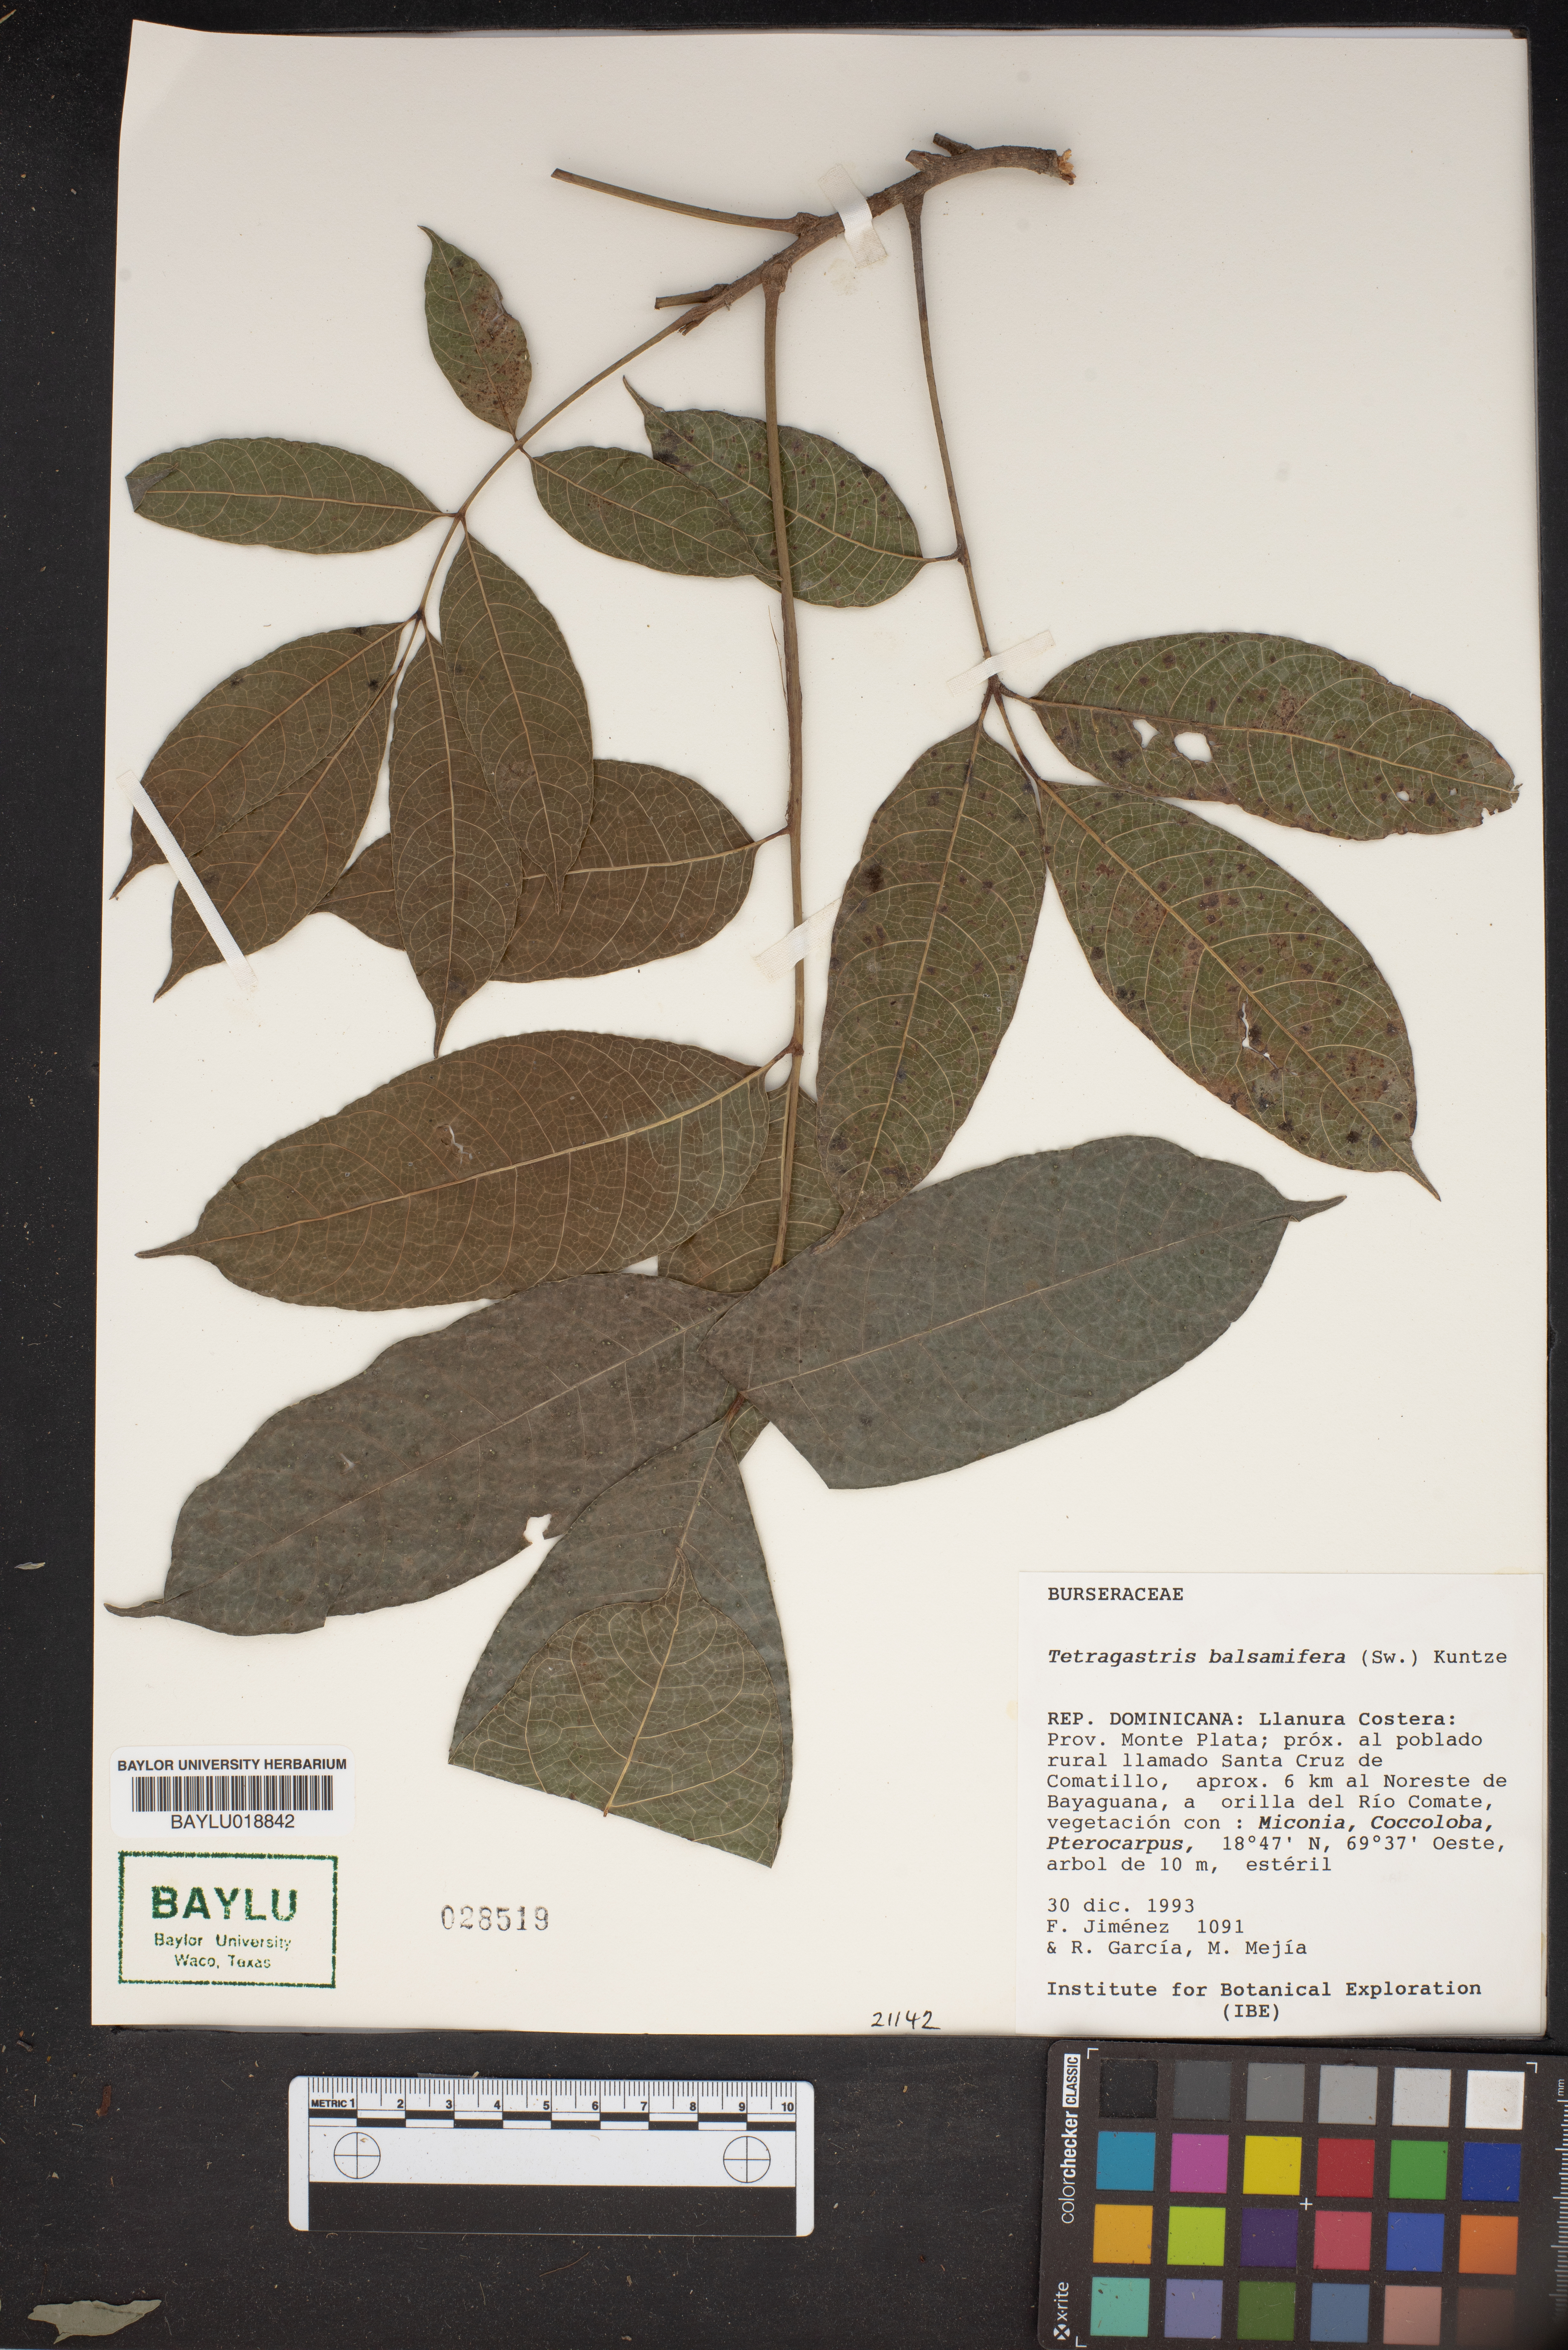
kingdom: Plantae
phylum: Tracheophyta
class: Magnoliopsida
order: Sapindales
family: Burseraceae
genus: Protium
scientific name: Protium balsamiferum
